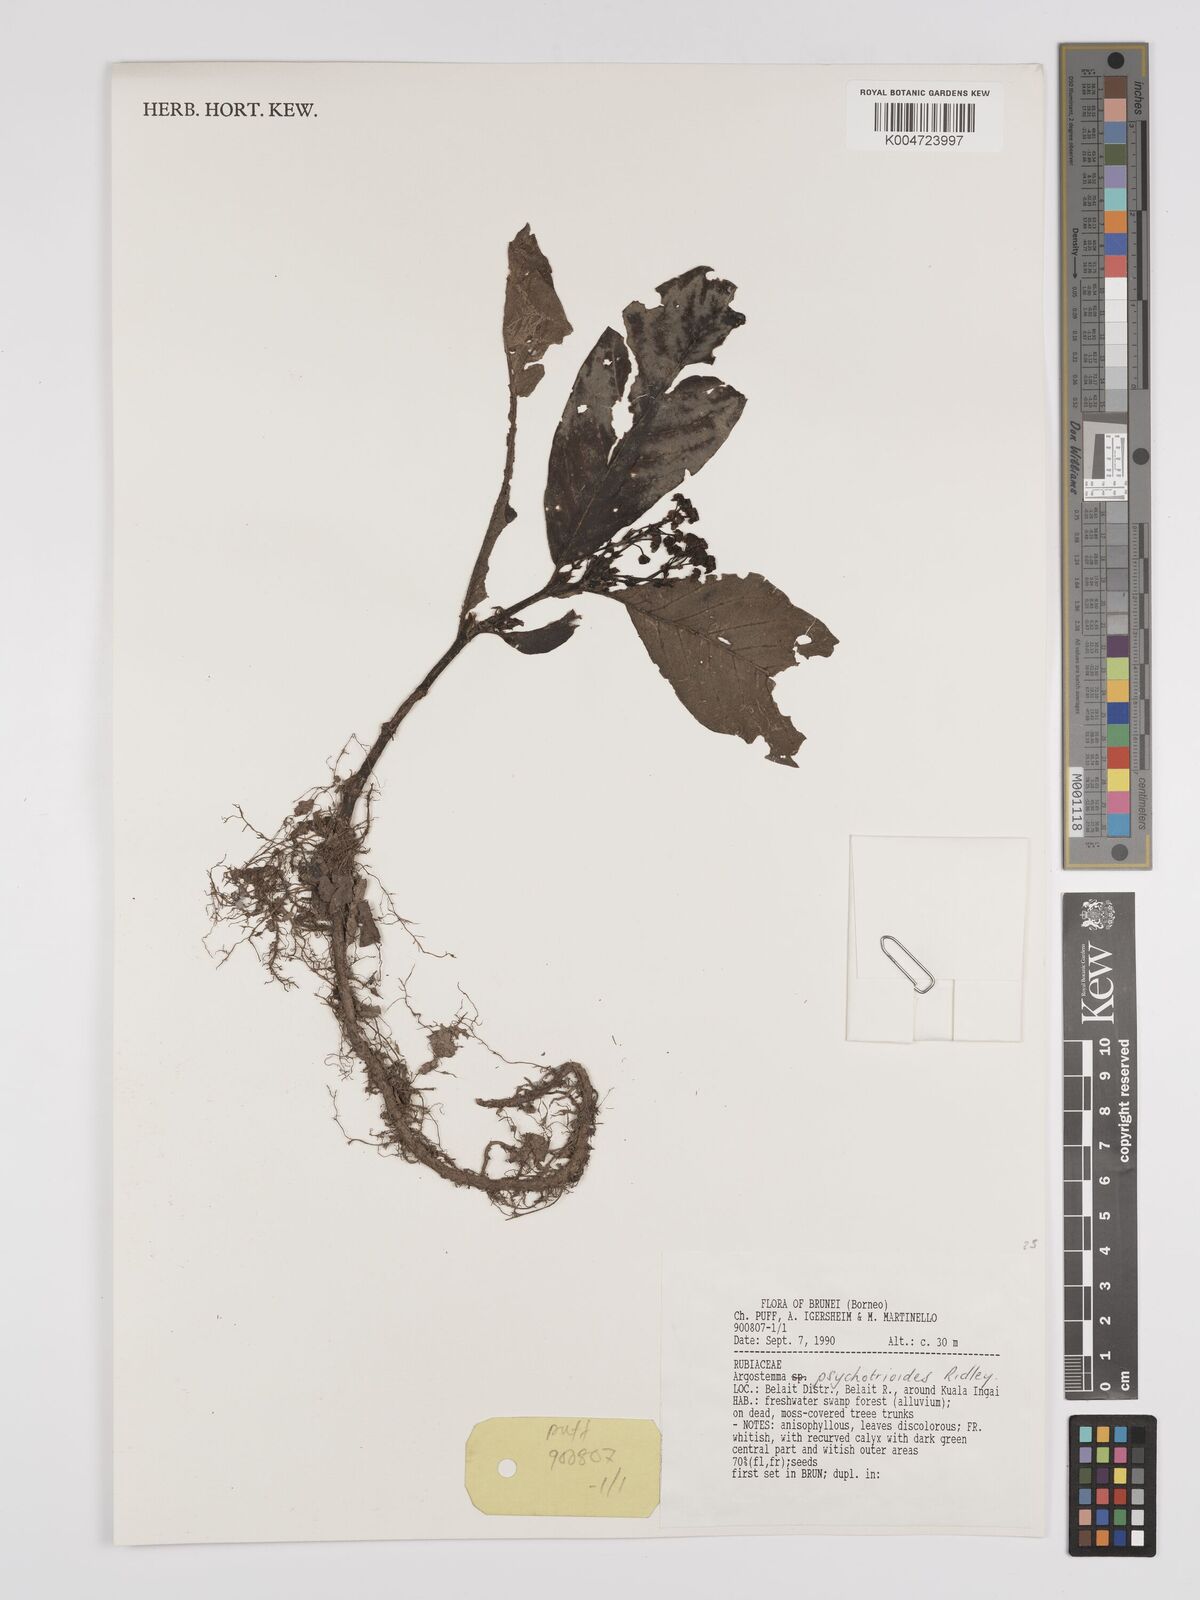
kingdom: Plantae
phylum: Tracheophyta
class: Magnoliopsida
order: Gentianales
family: Rubiaceae
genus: Argostemma
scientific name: Argostemma psychotrioides
